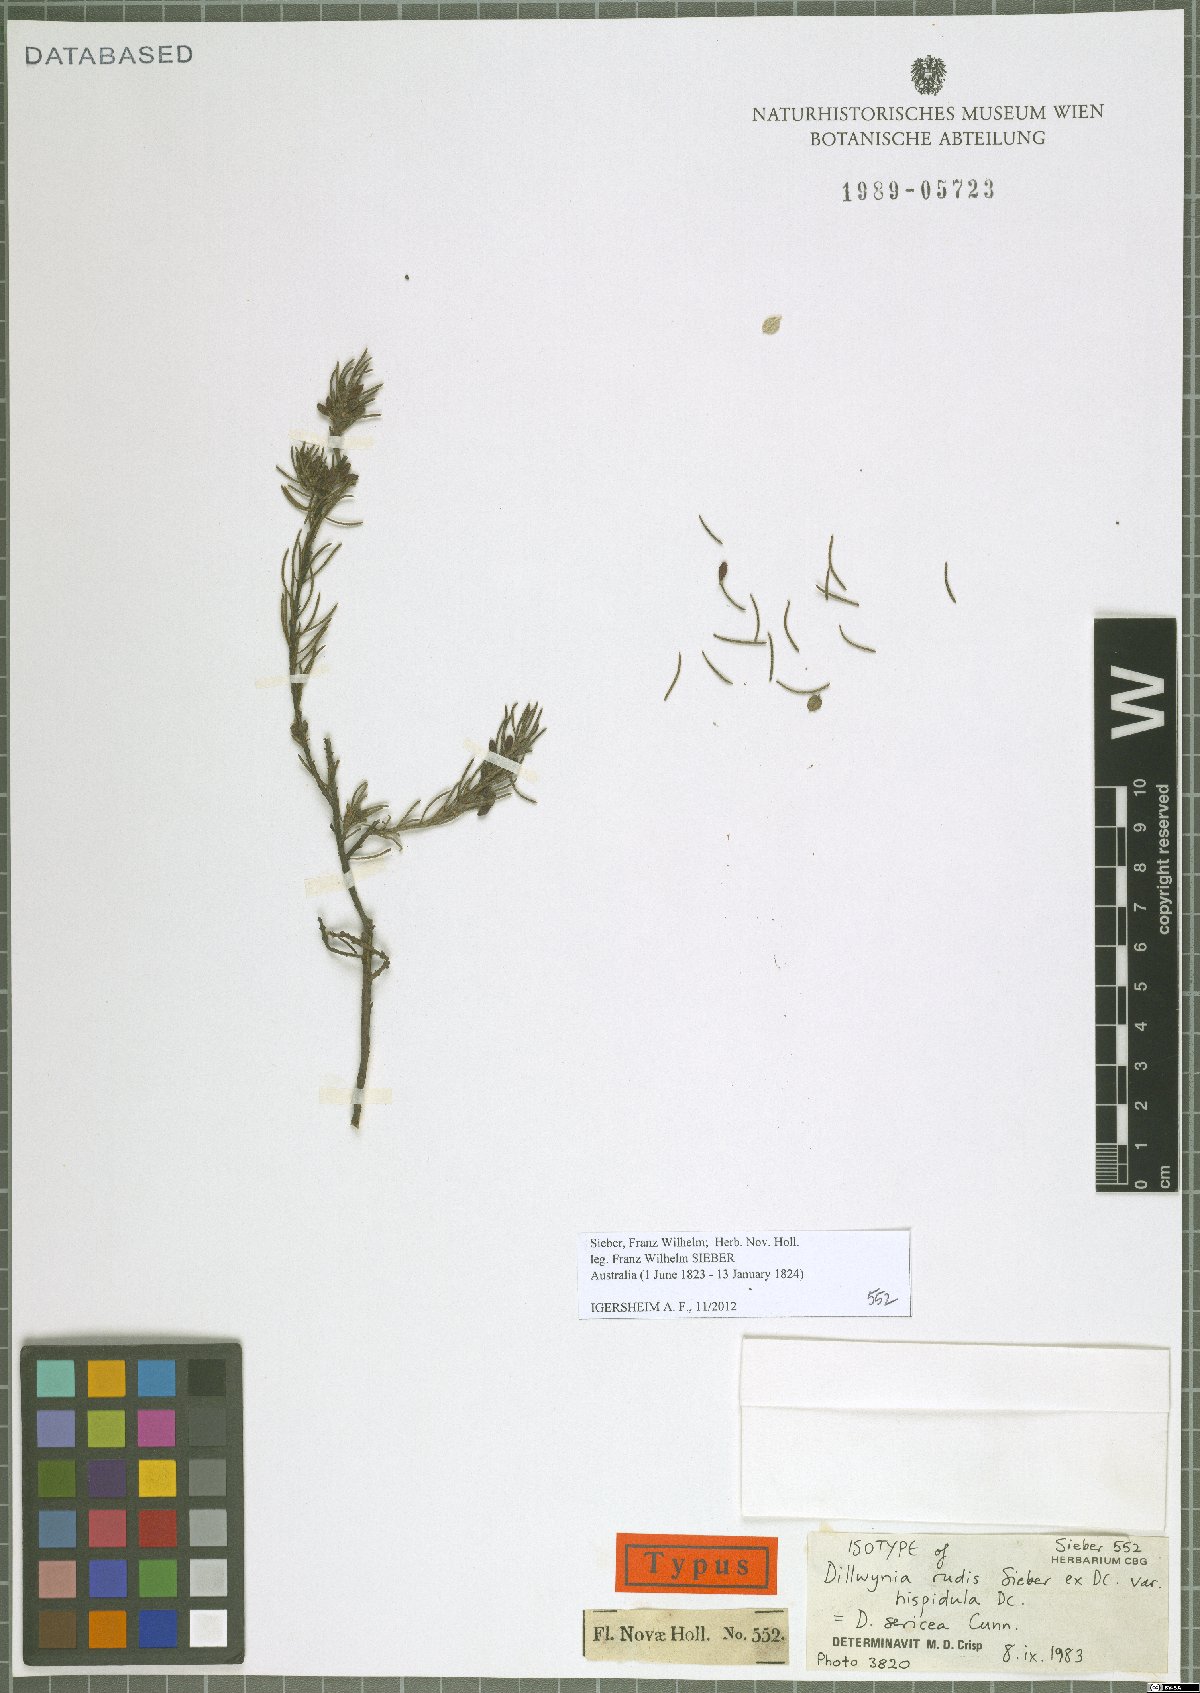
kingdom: Plantae
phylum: Tracheophyta
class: Magnoliopsida
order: Fabales
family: Fabaceae
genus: Dillwynia
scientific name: Dillwynia sericea
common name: Showy parrot-pea
